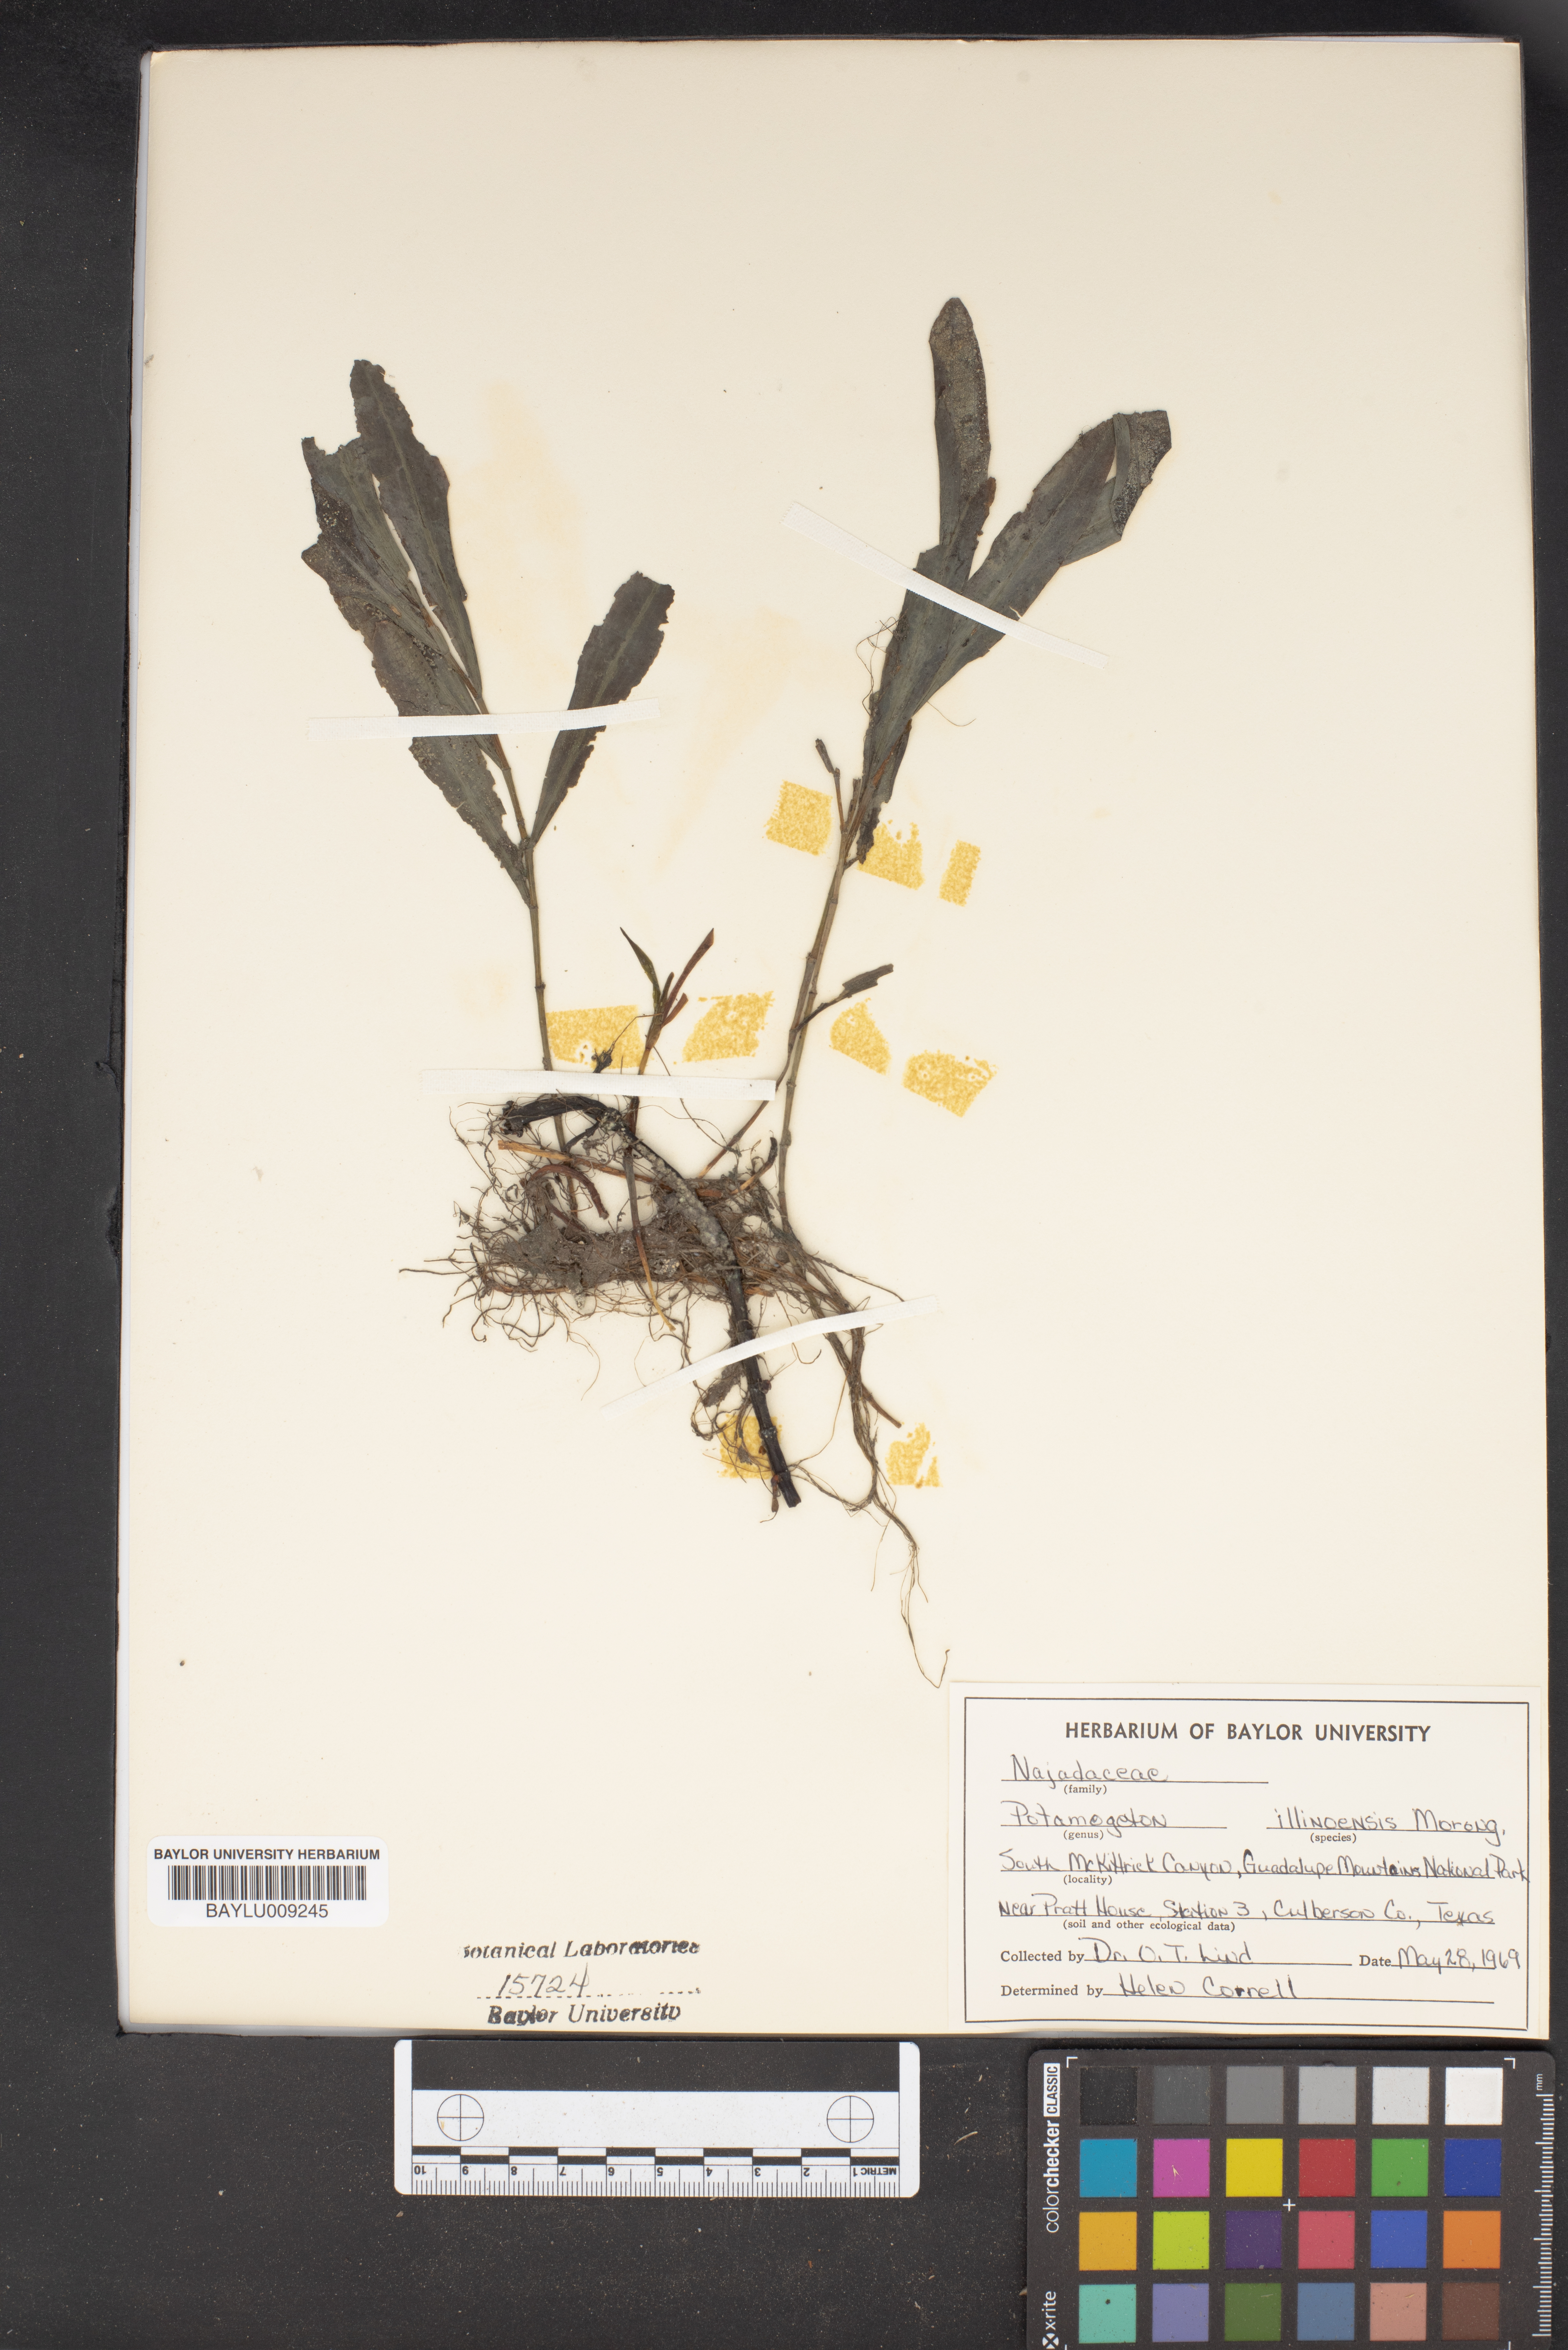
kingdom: Plantae
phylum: Tracheophyta
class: Liliopsida
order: Alismatales
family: Potamogetonaceae
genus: Potamogeton
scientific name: Potamogeton illinoensis
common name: Illinois pondweed
